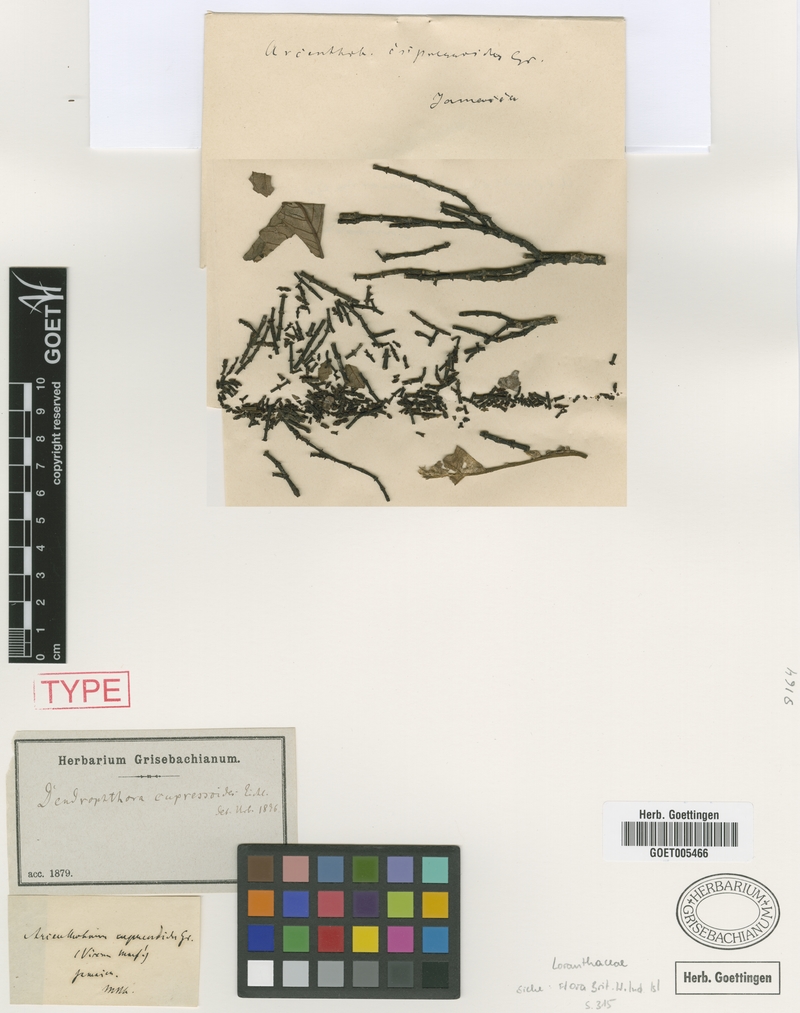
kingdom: Plantae
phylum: Tracheophyta
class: Magnoliopsida
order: Santalales
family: Viscaceae
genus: Dendrophthora
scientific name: Dendrophthora cupressoides
